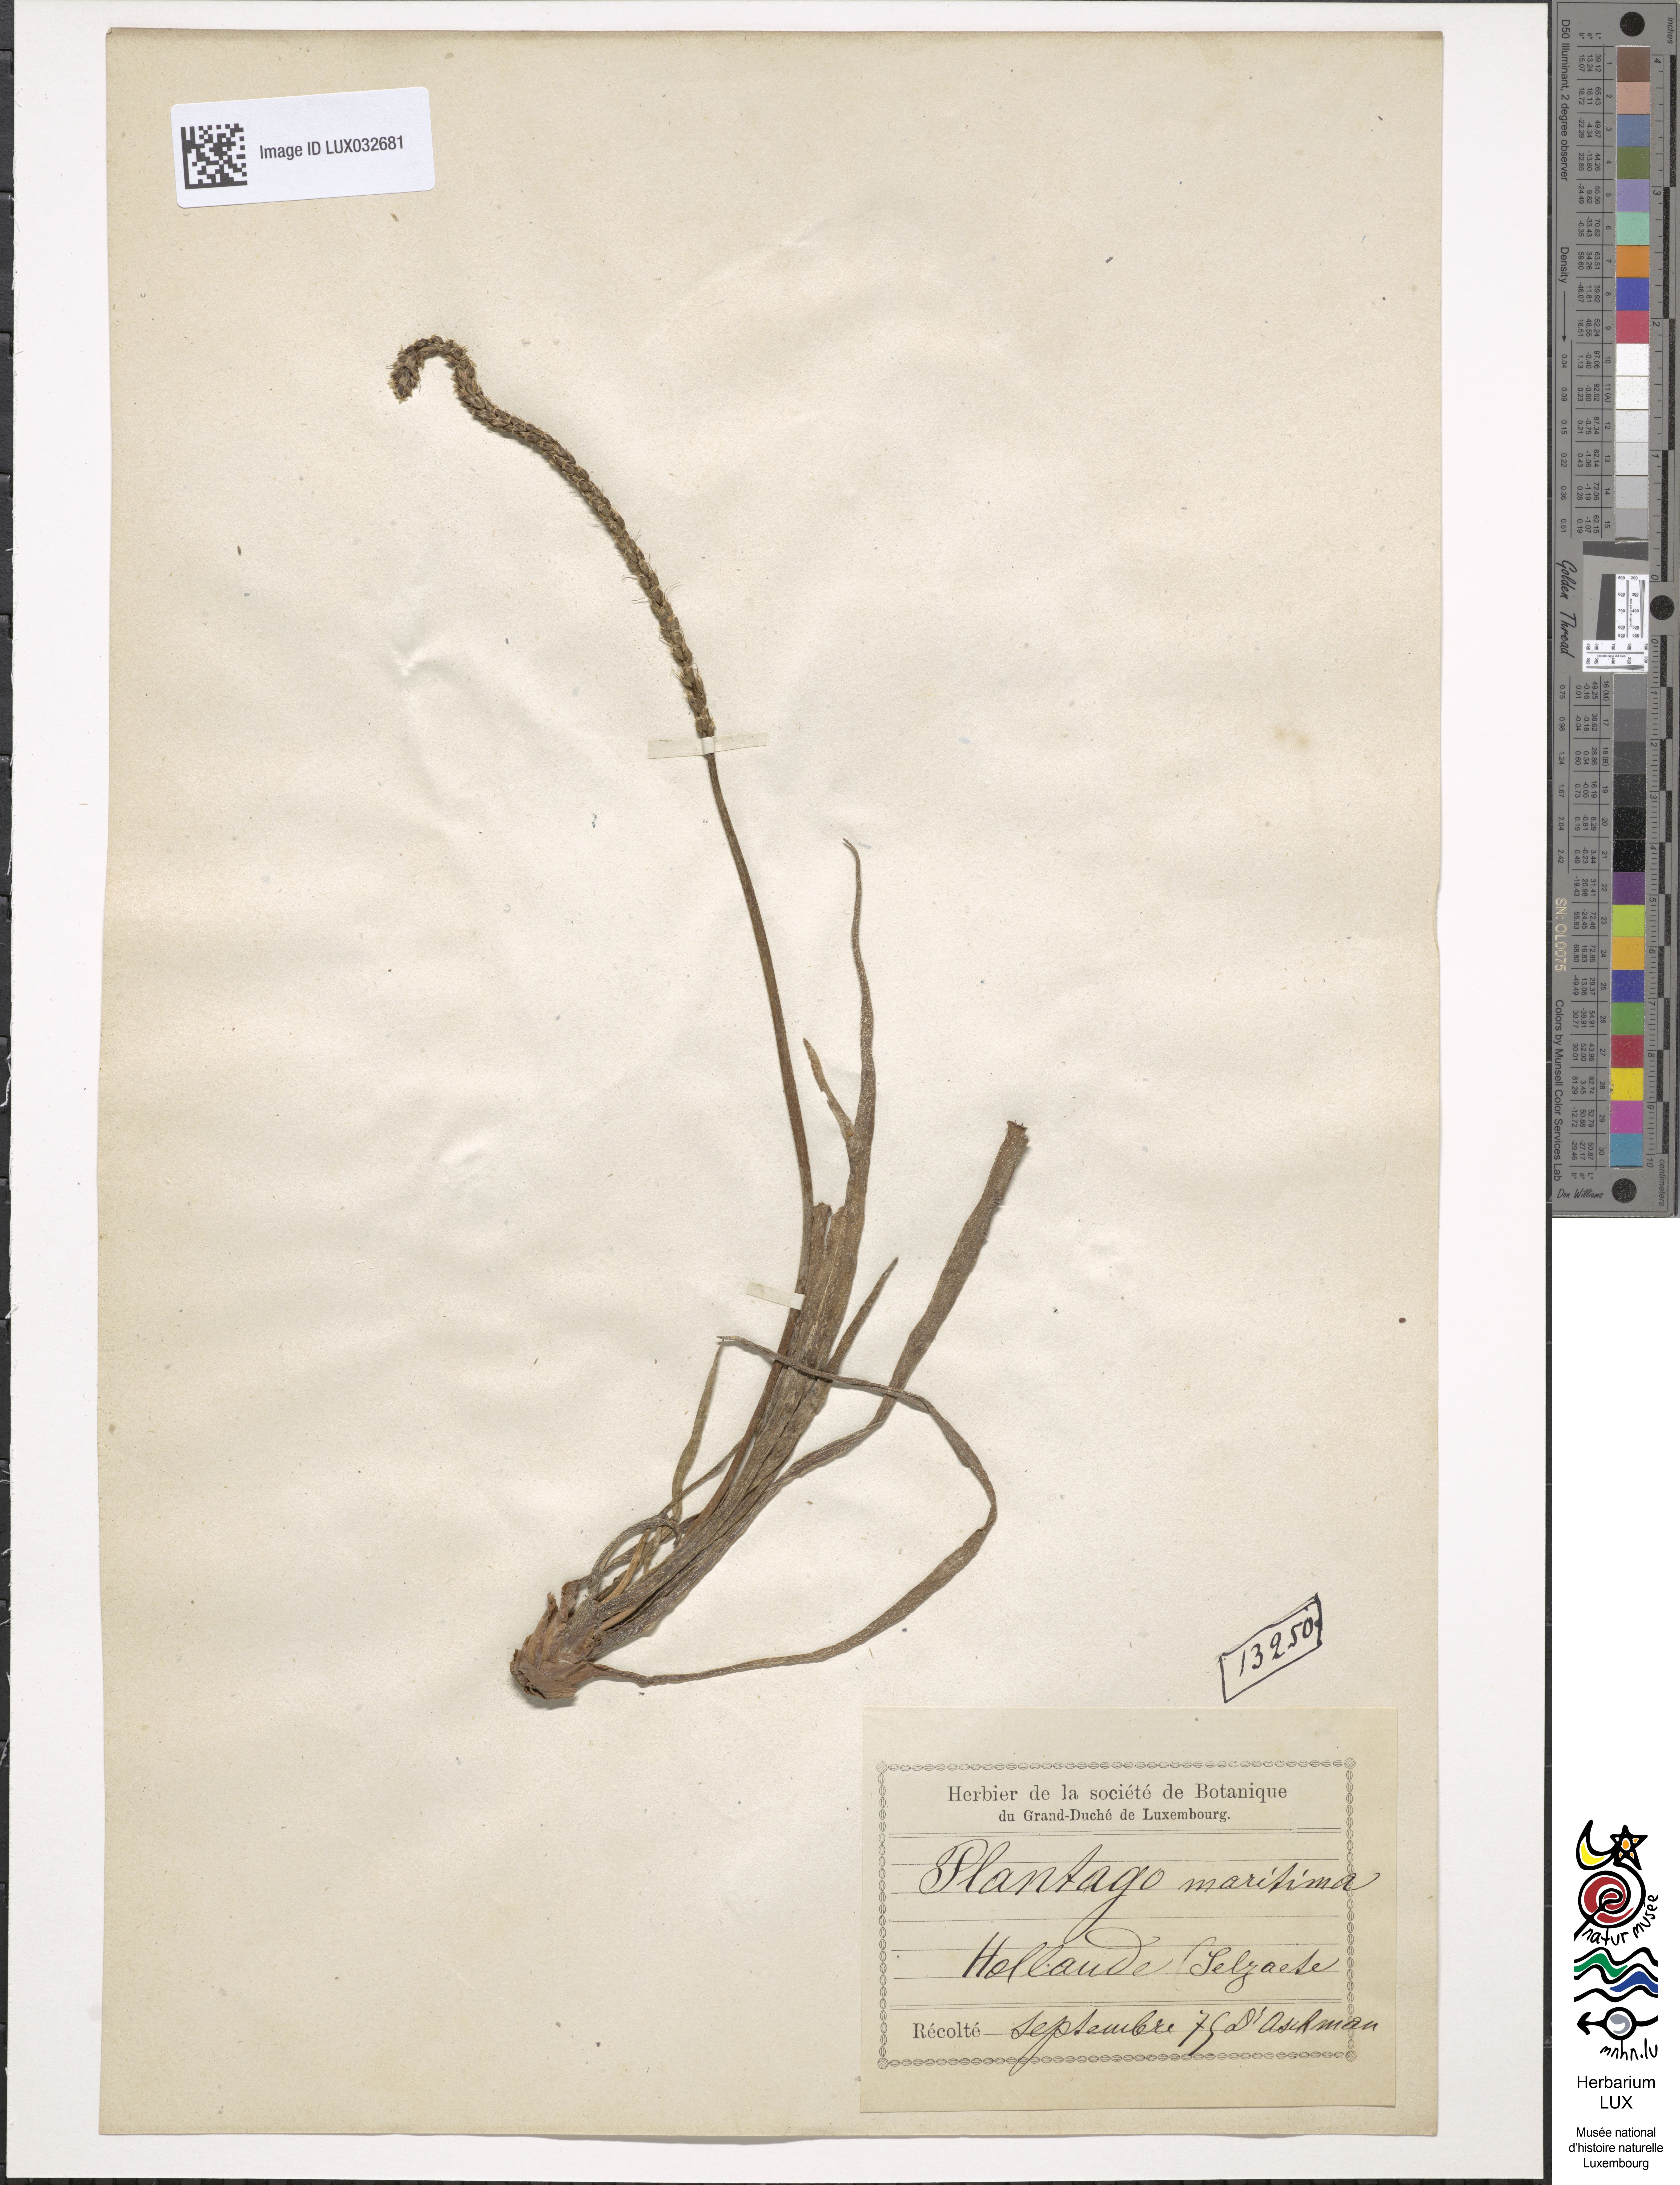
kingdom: Plantae
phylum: Tracheophyta
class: Magnoliopsida
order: Lamiales
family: Plantaginaceae
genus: Plantago
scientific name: Plantago maritima
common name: Sea plantain
